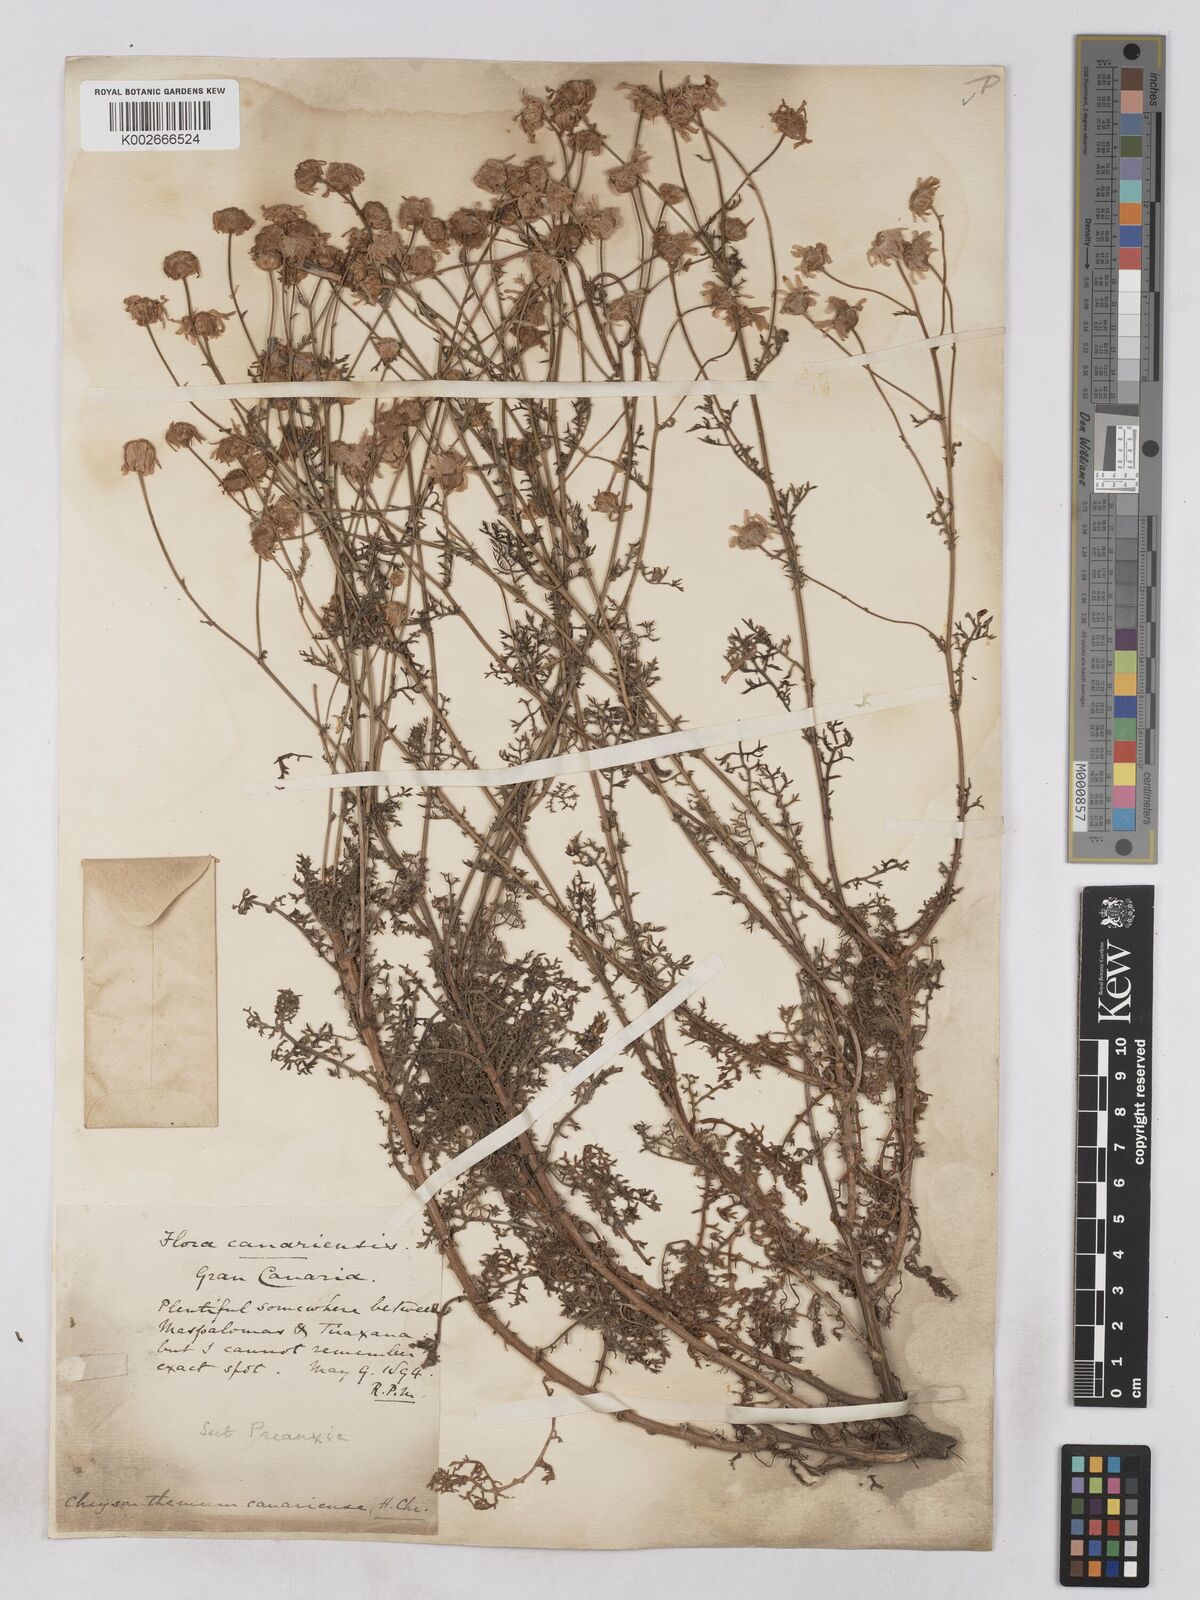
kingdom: Plantae
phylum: Tracheophyta
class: Magnoliopsida
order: Asterales
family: Asteraceae
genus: Argyranthemum
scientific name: Argyranthemum adauctum
